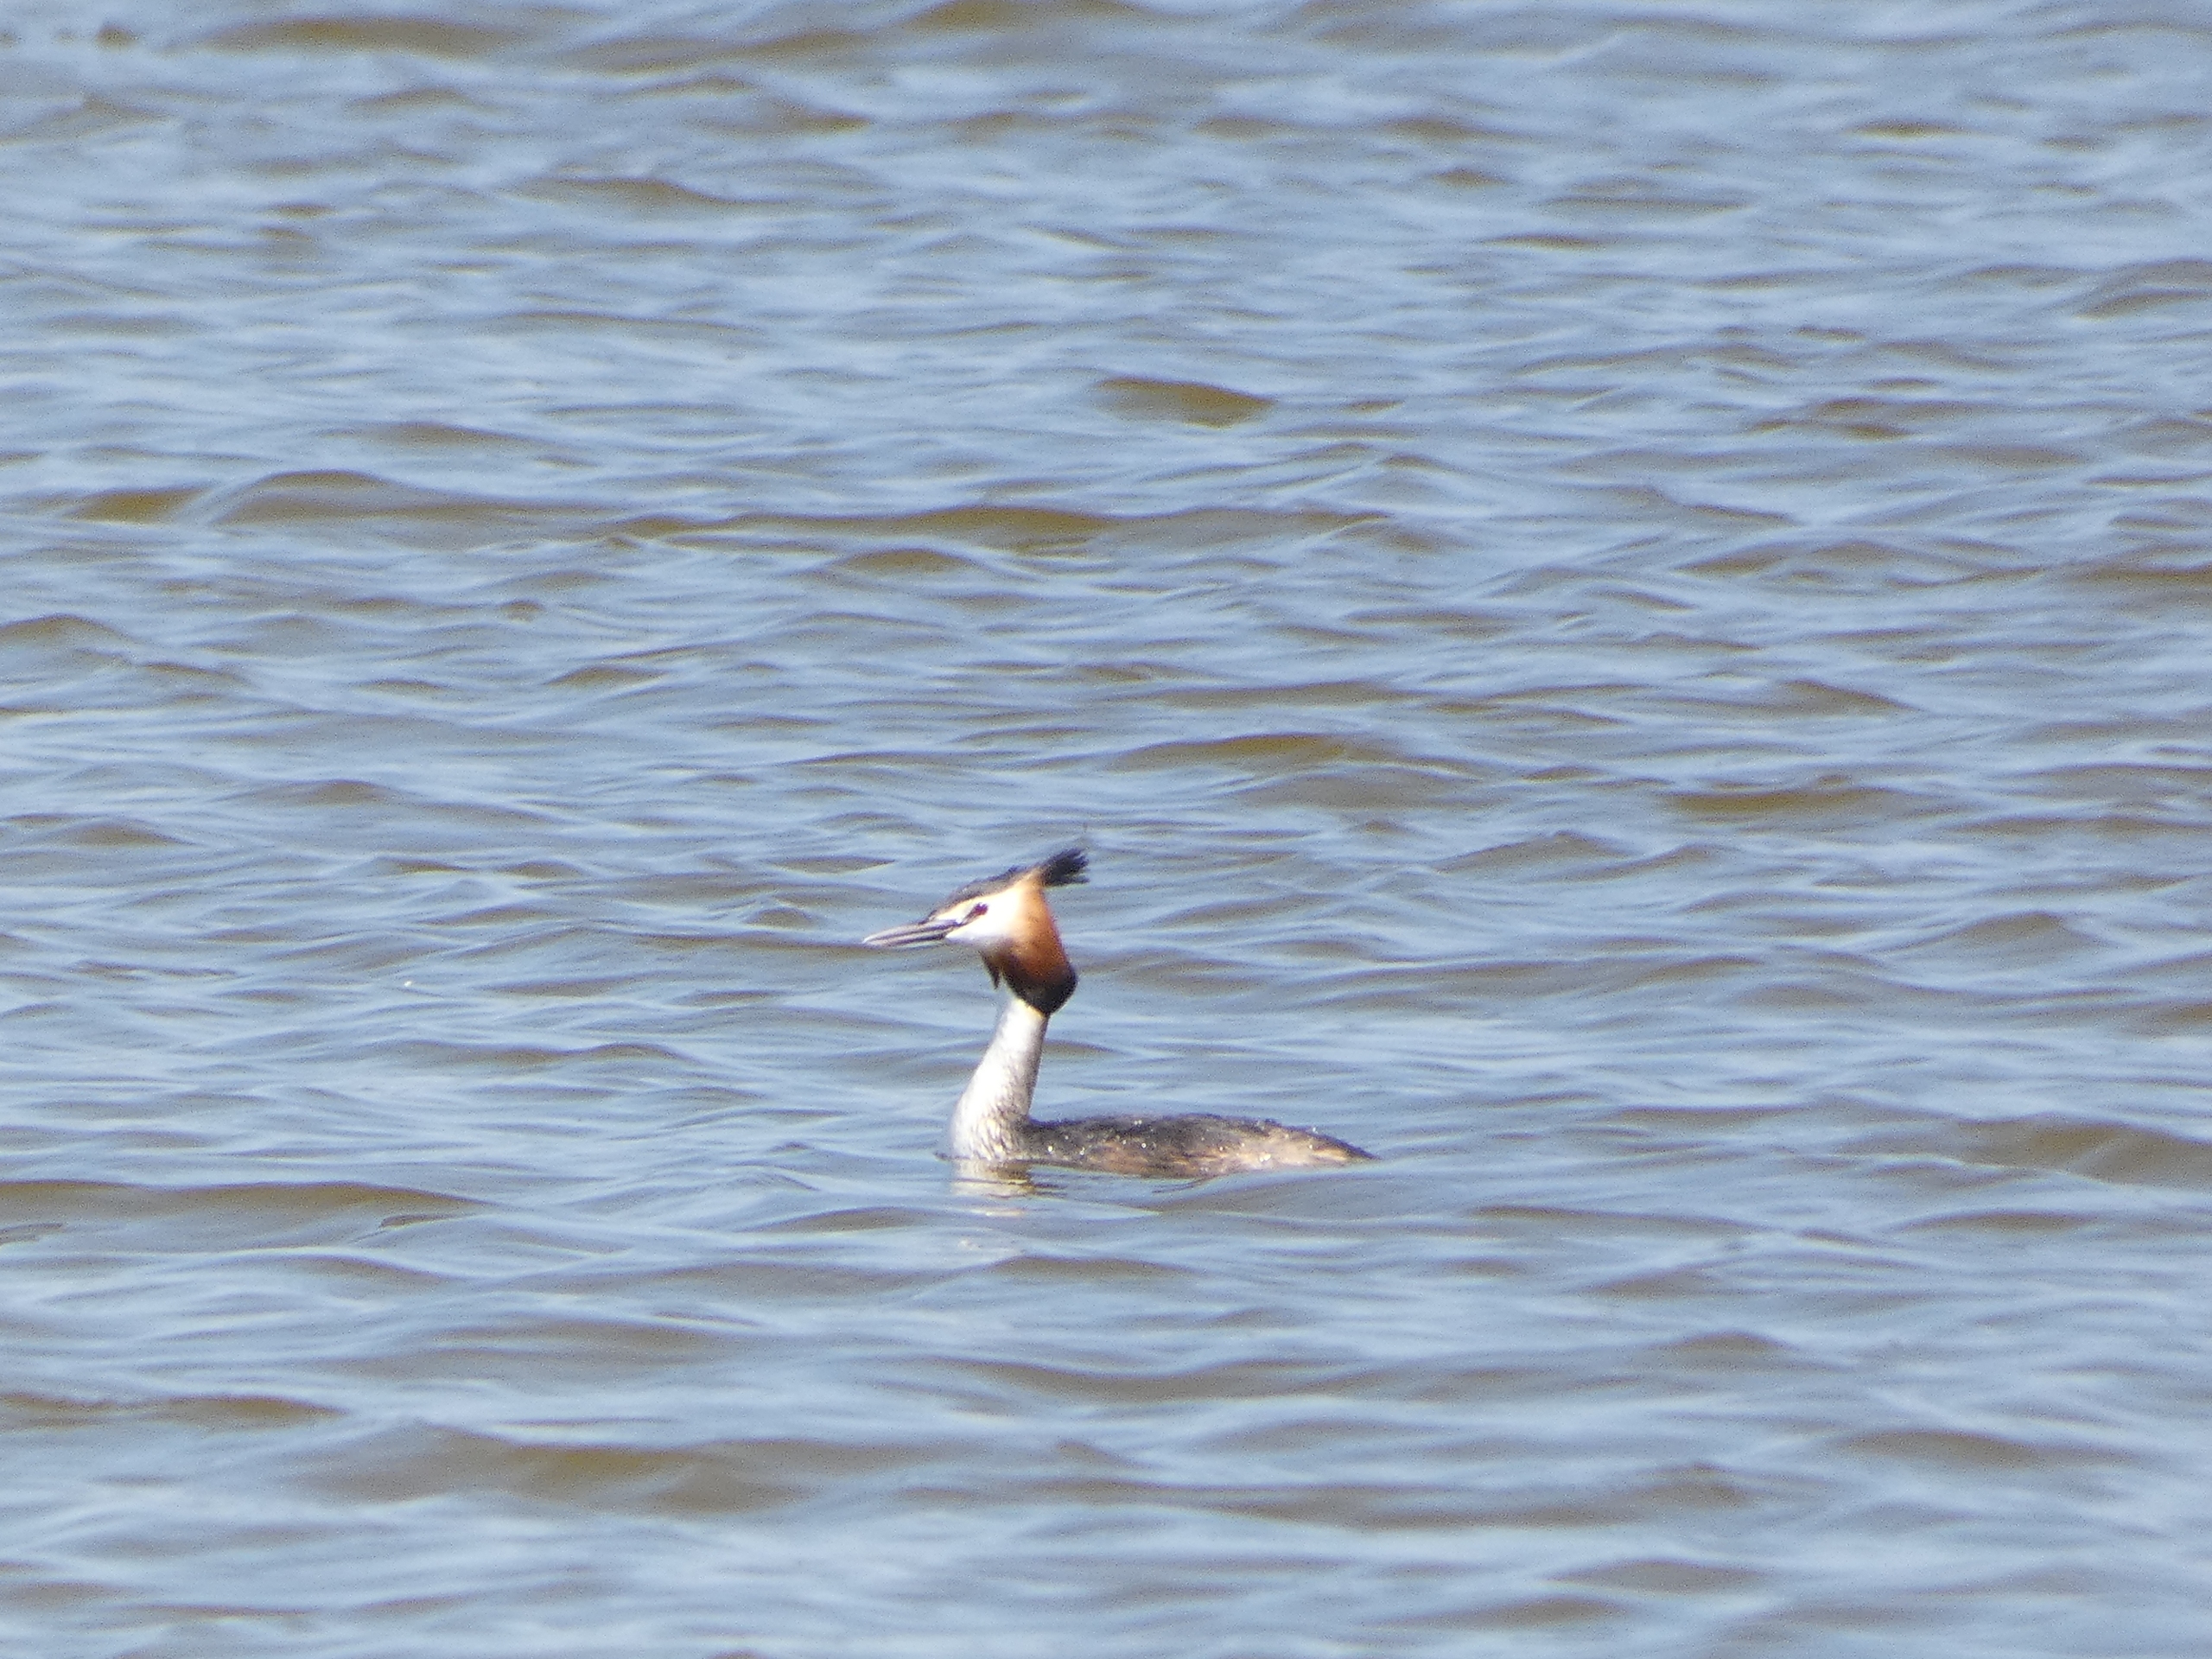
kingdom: Animalia
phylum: Chordata
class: Aves
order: Podicipediformes
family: Podicipedidae
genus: Podiceps
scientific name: Podiceps cristatus
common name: Toppet lappedykker
